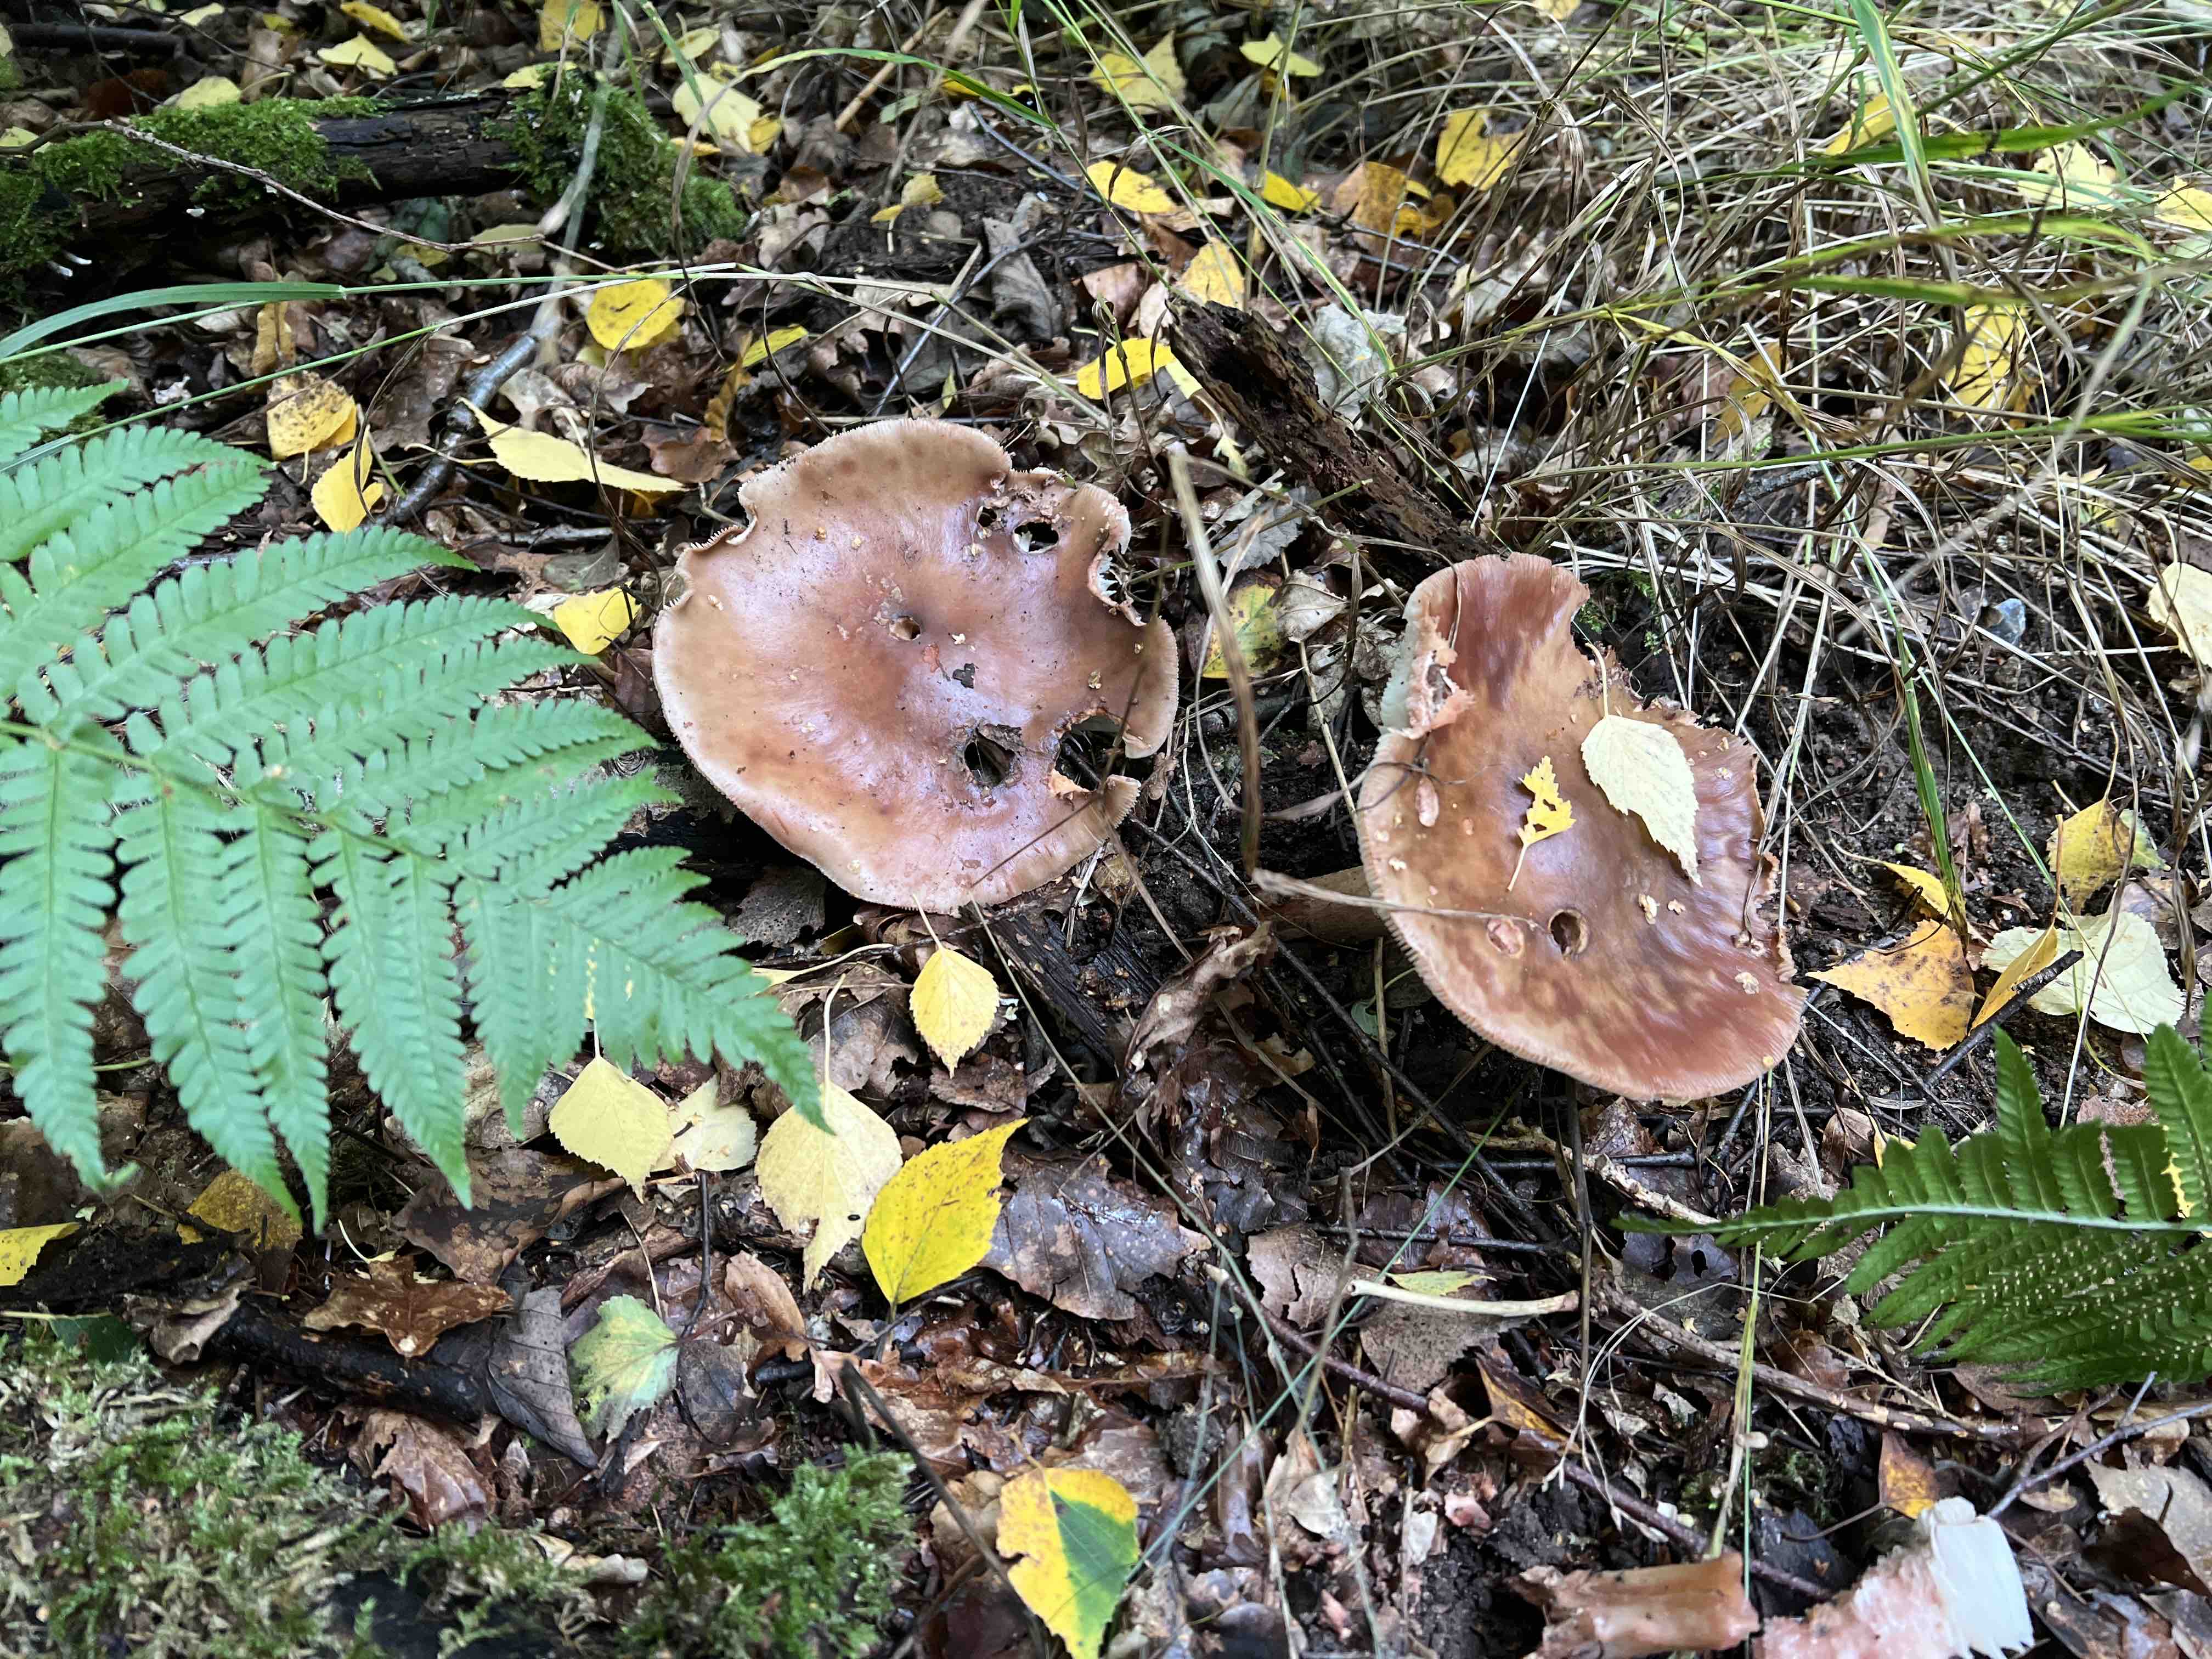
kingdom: Fungi
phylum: Basidiomycota
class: Agaricomycetes
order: Agaricales
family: Amanitaceae
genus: Amanita
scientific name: Amanita rubescens
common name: rødmende fluesvamp
